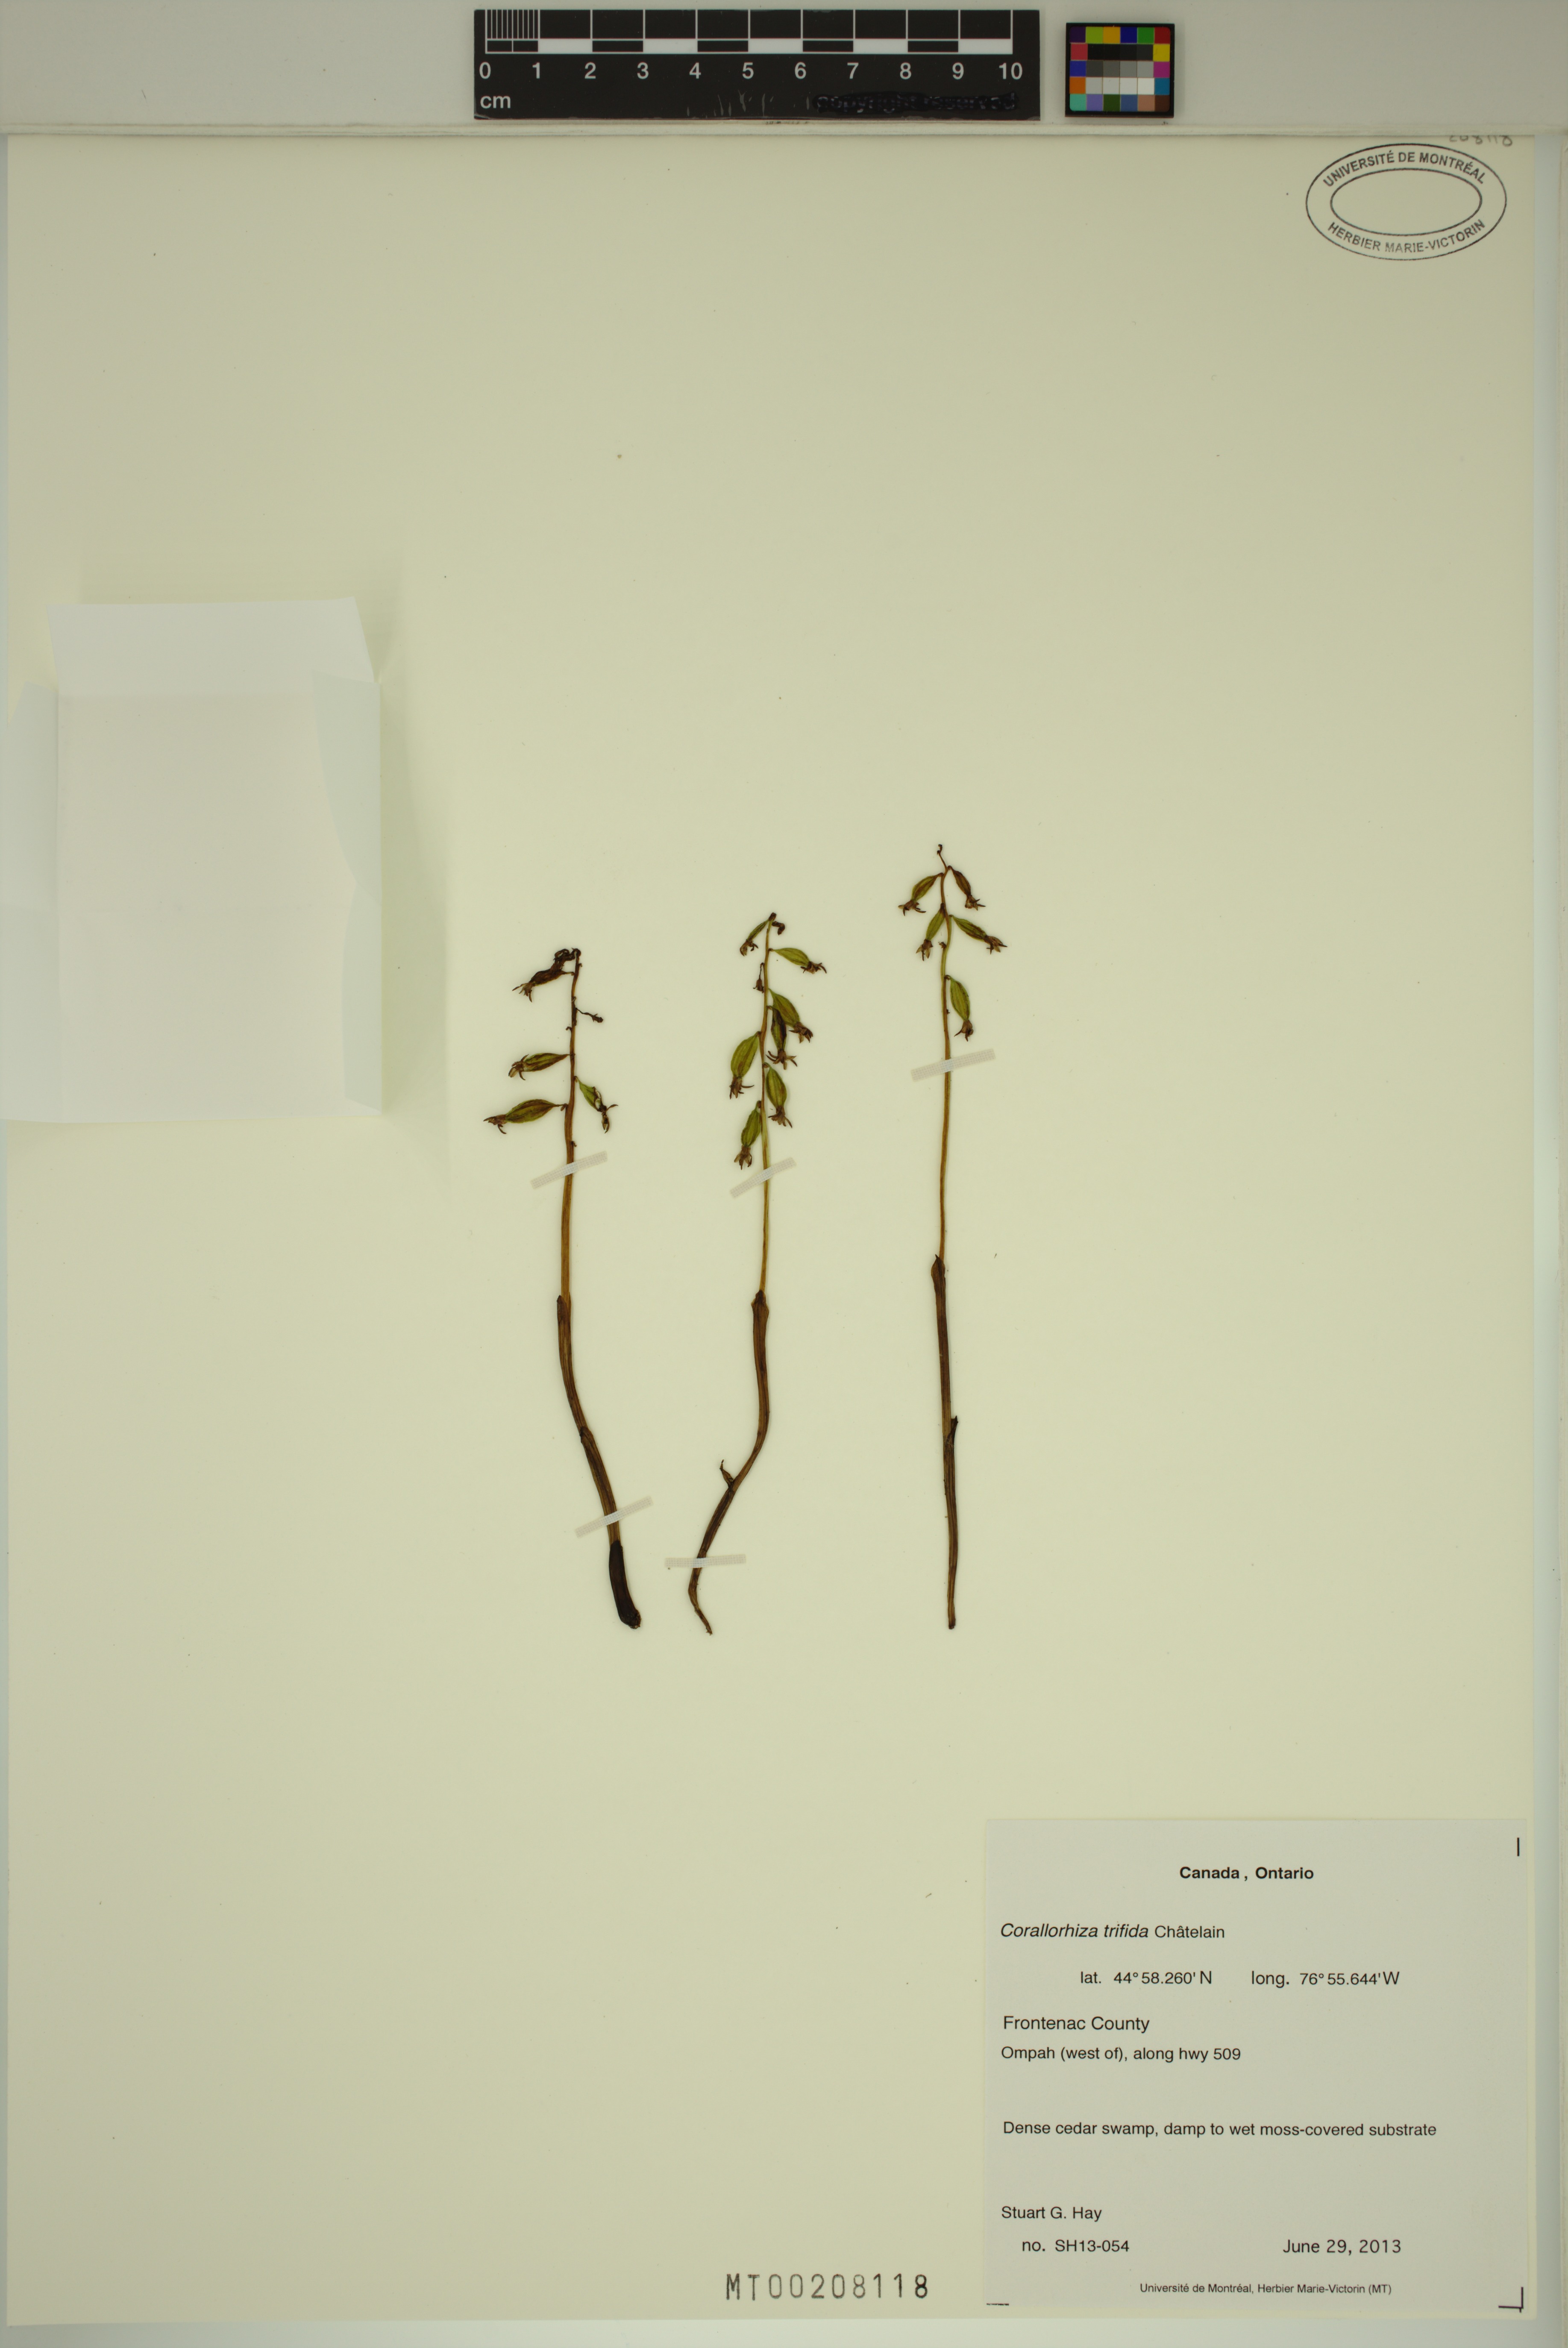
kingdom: Plantae
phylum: Tracheophyta
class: Liliopsida
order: Asparagales
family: Orchidaceae
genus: Corallorhiza
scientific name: Corallorhiza trifida
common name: Yellow coralroot
